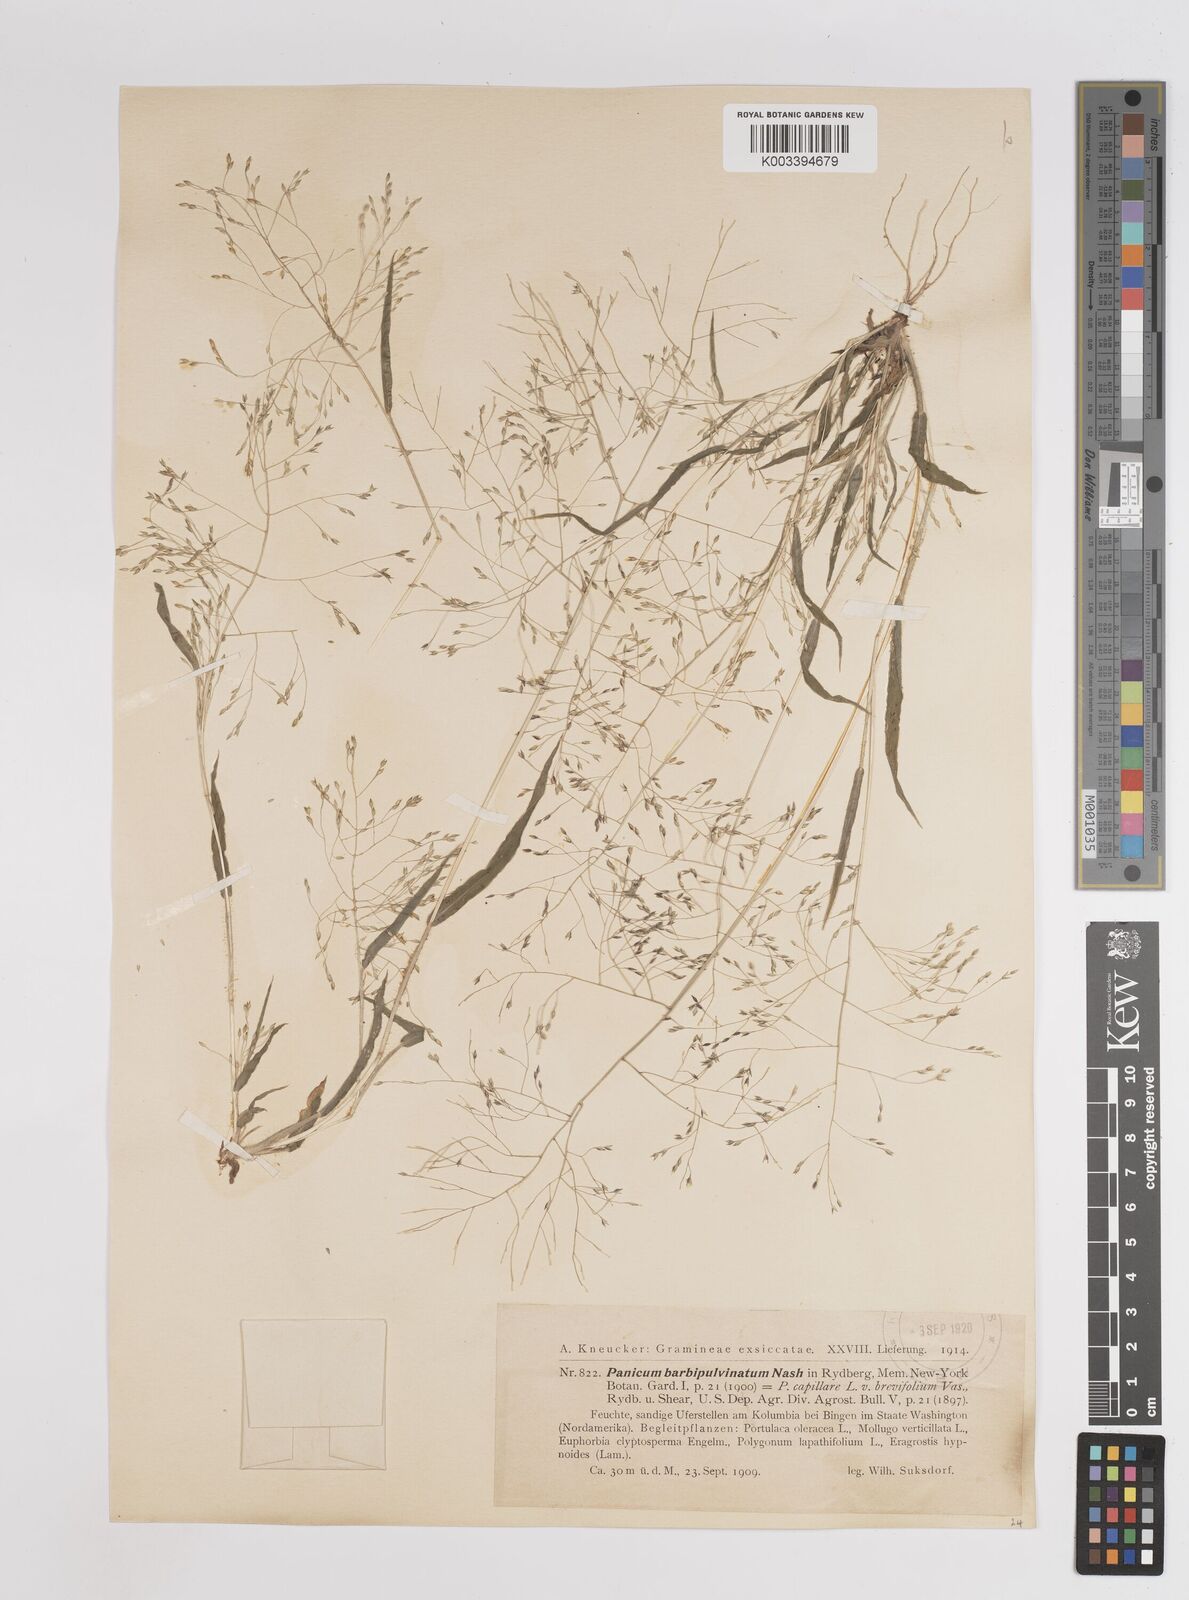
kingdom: Plantae
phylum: Tracheophyta
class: Liliopsida
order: Poales
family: Poaceae
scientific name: Poaceae
